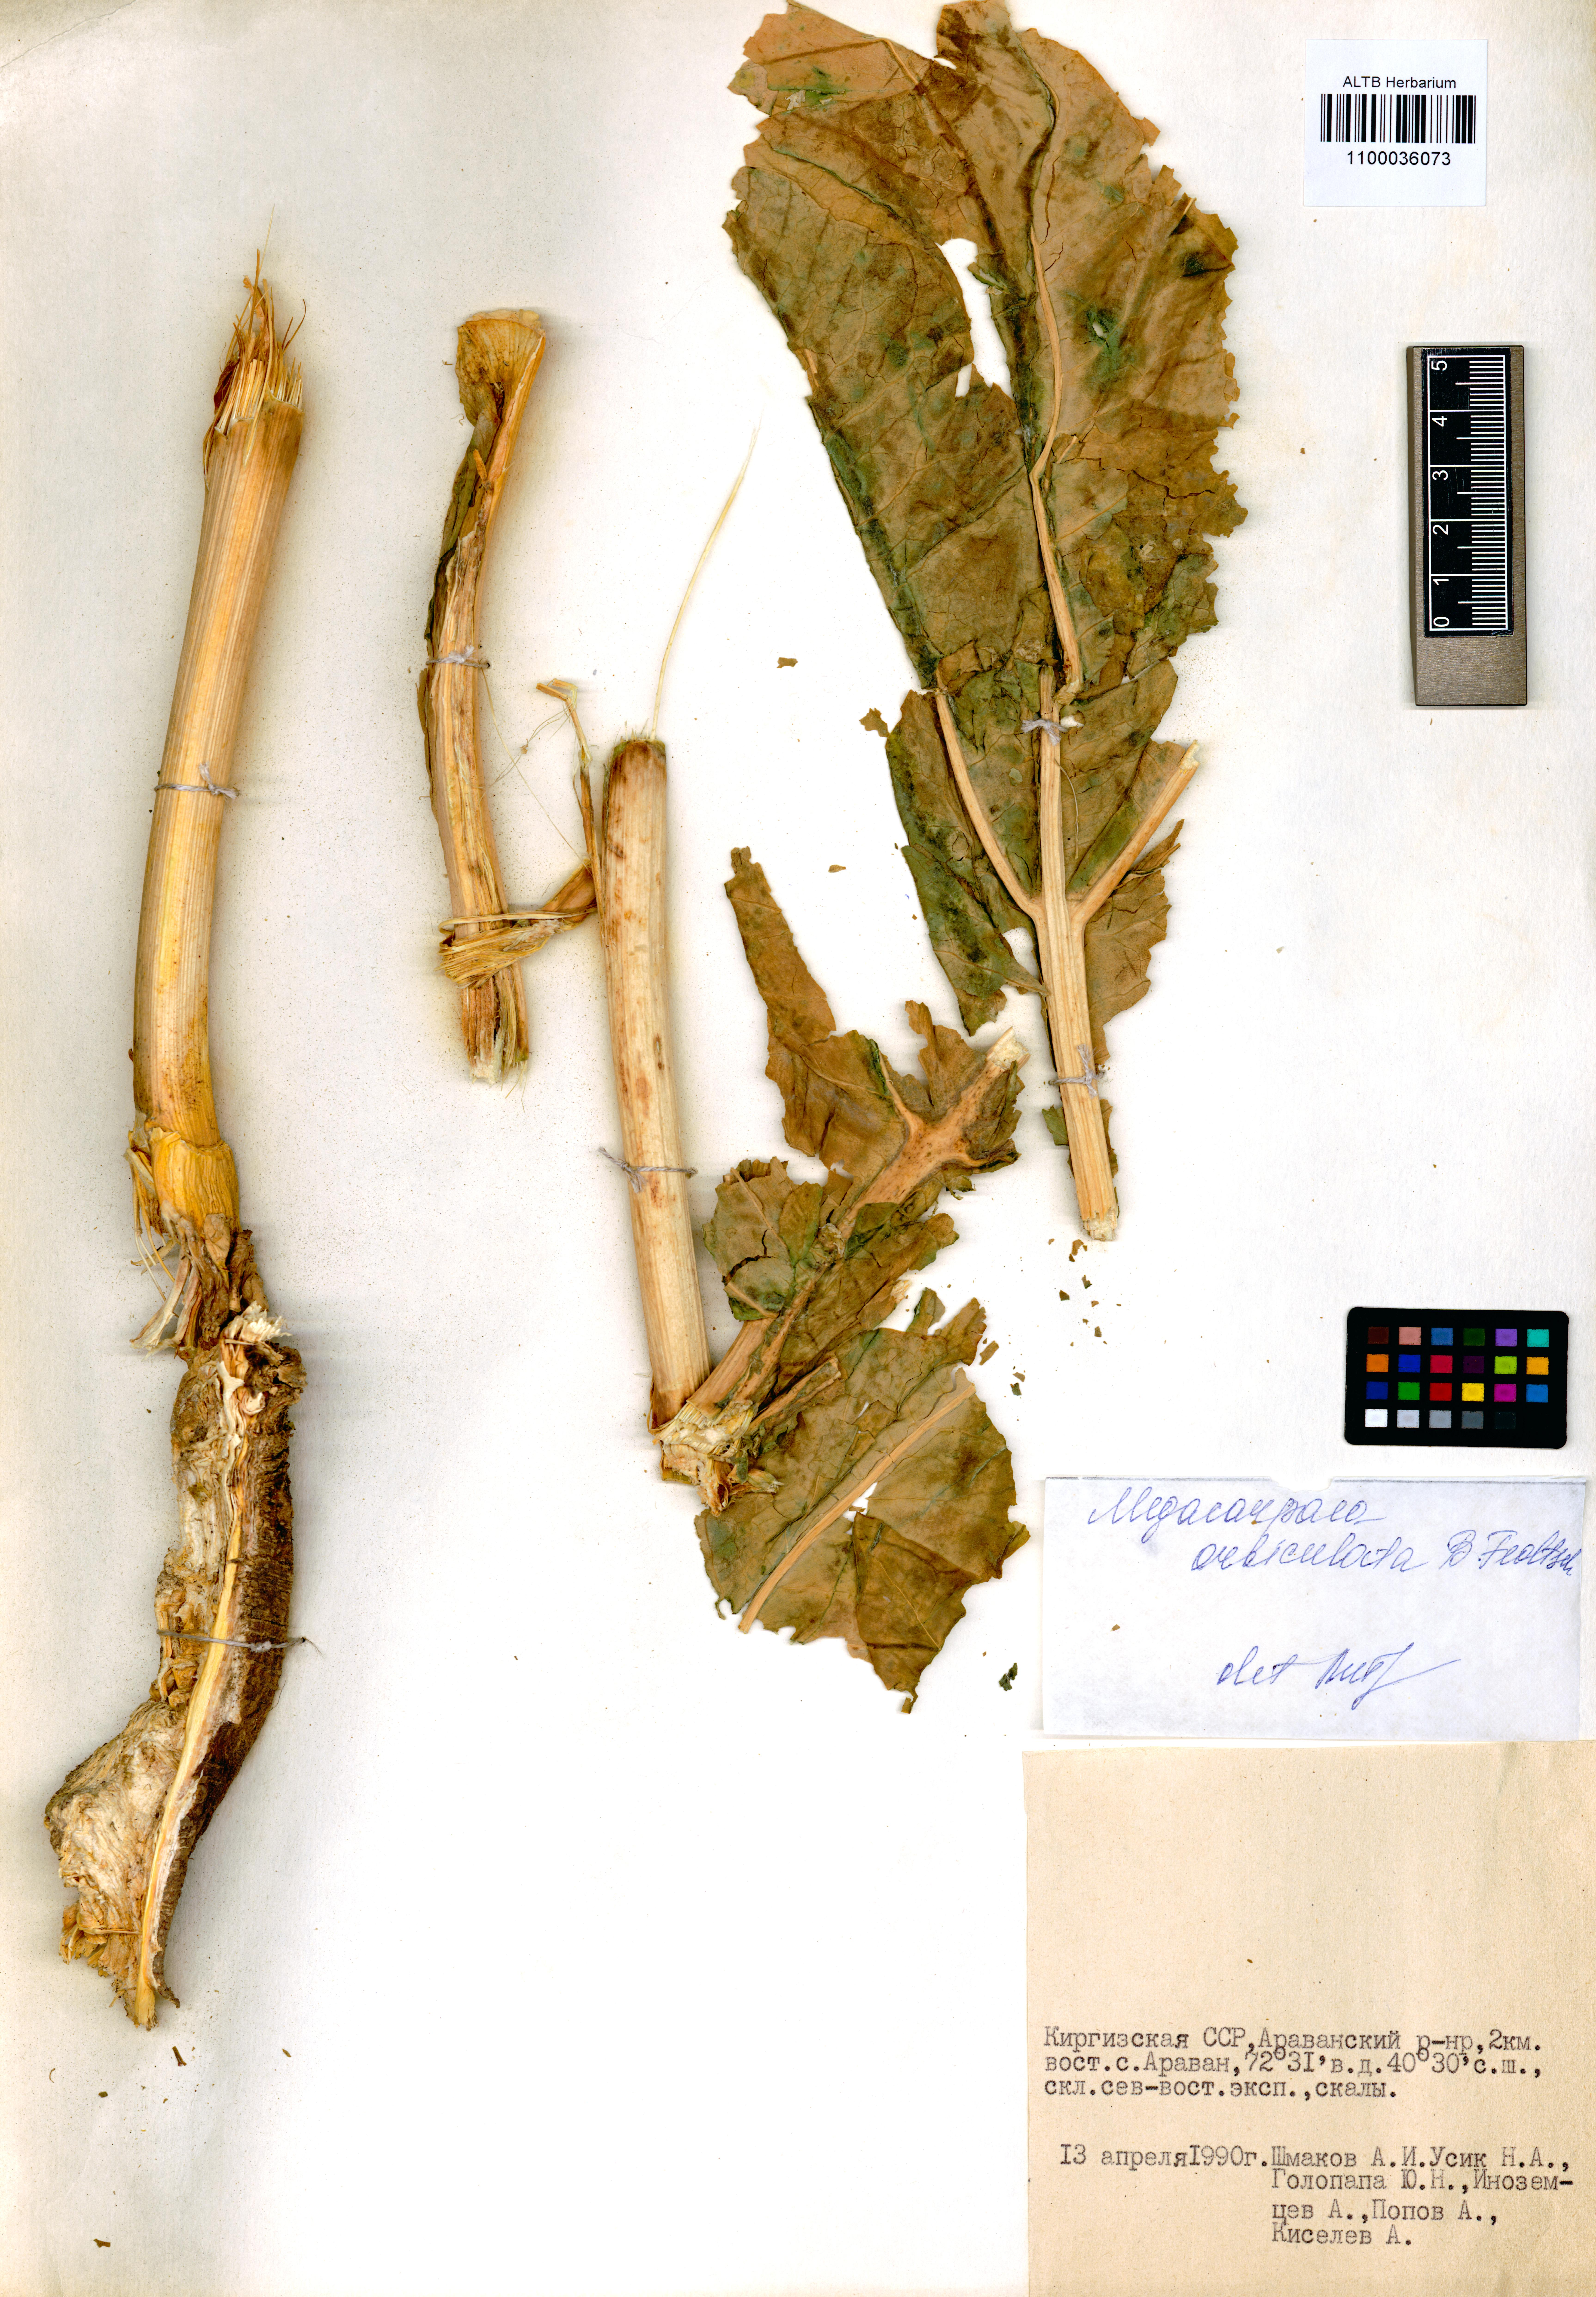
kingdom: Plantae
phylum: Tracheophyta
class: Magnoliopsida
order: Brassicales
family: Brassicaceae
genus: Megacarpaea
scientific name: Megacarpaea orbiculata
